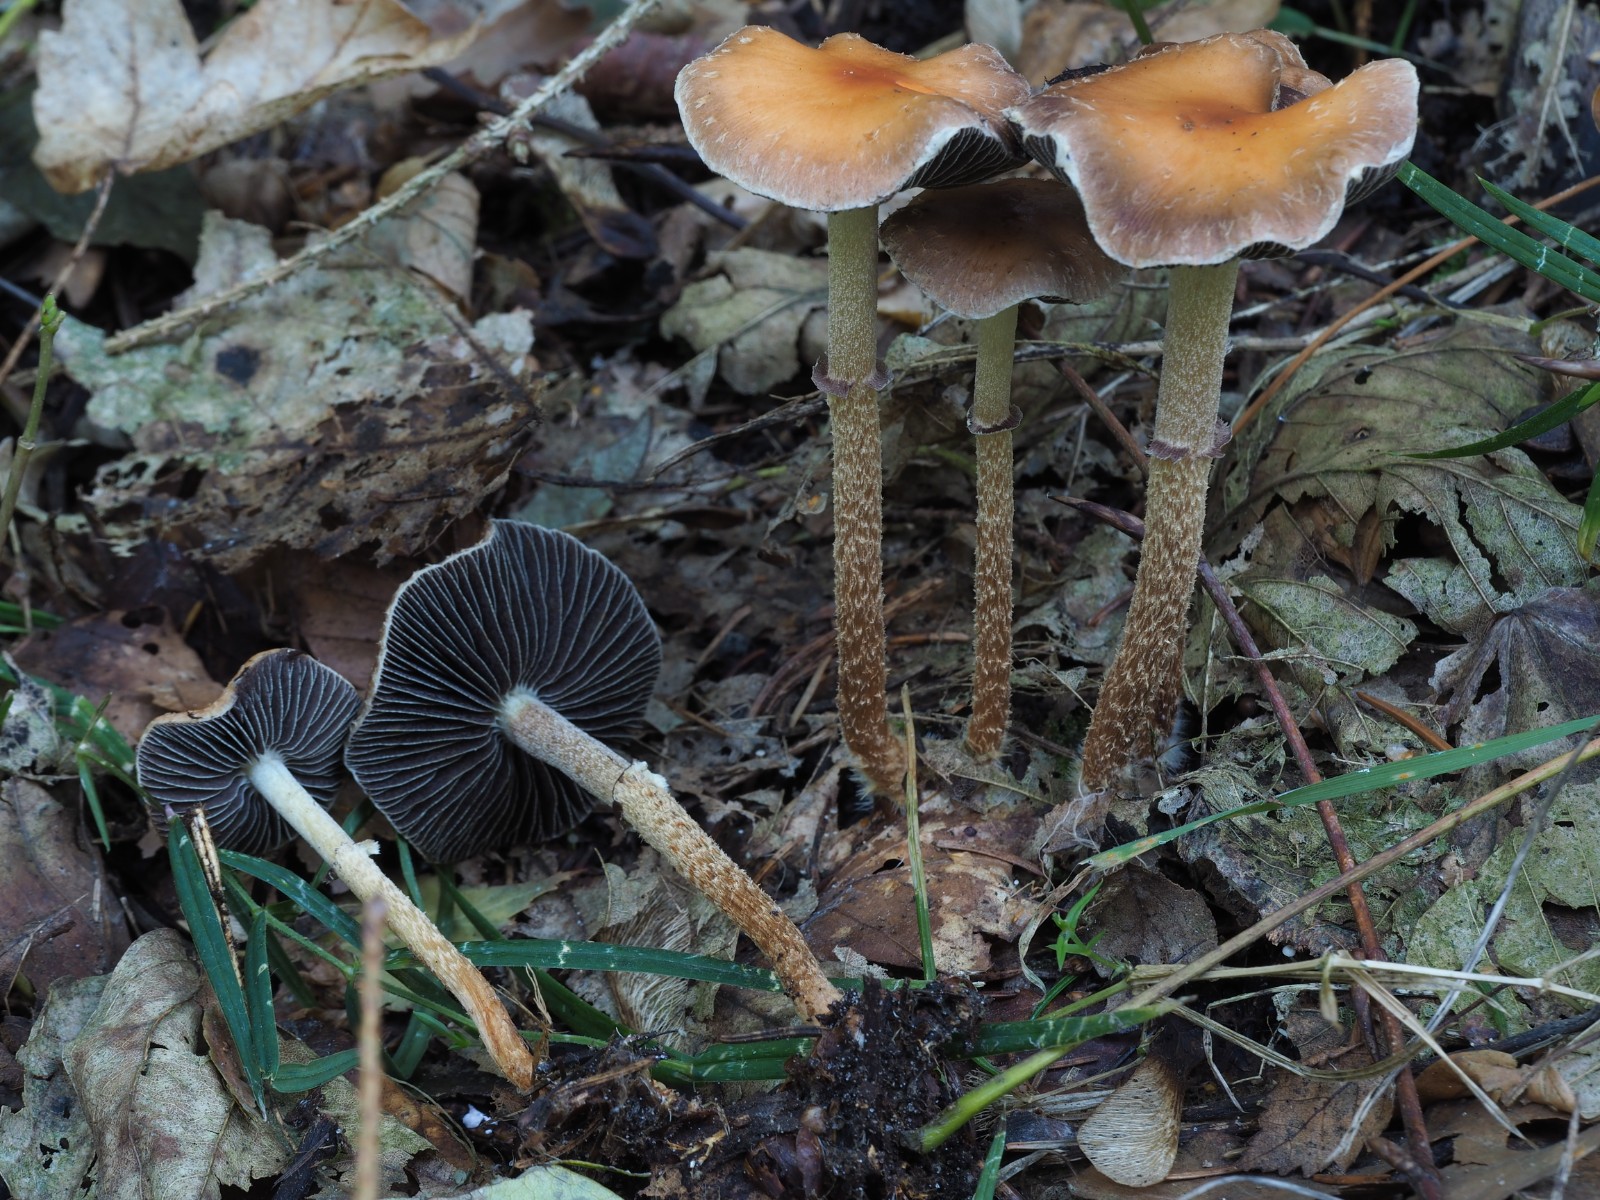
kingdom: Fungi
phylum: Basidiomycota
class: Agaricomycetes
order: Agaricales
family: Strophariaceae
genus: Leratiomyces
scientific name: Leratiomyces squamosus
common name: skællet bredblad
